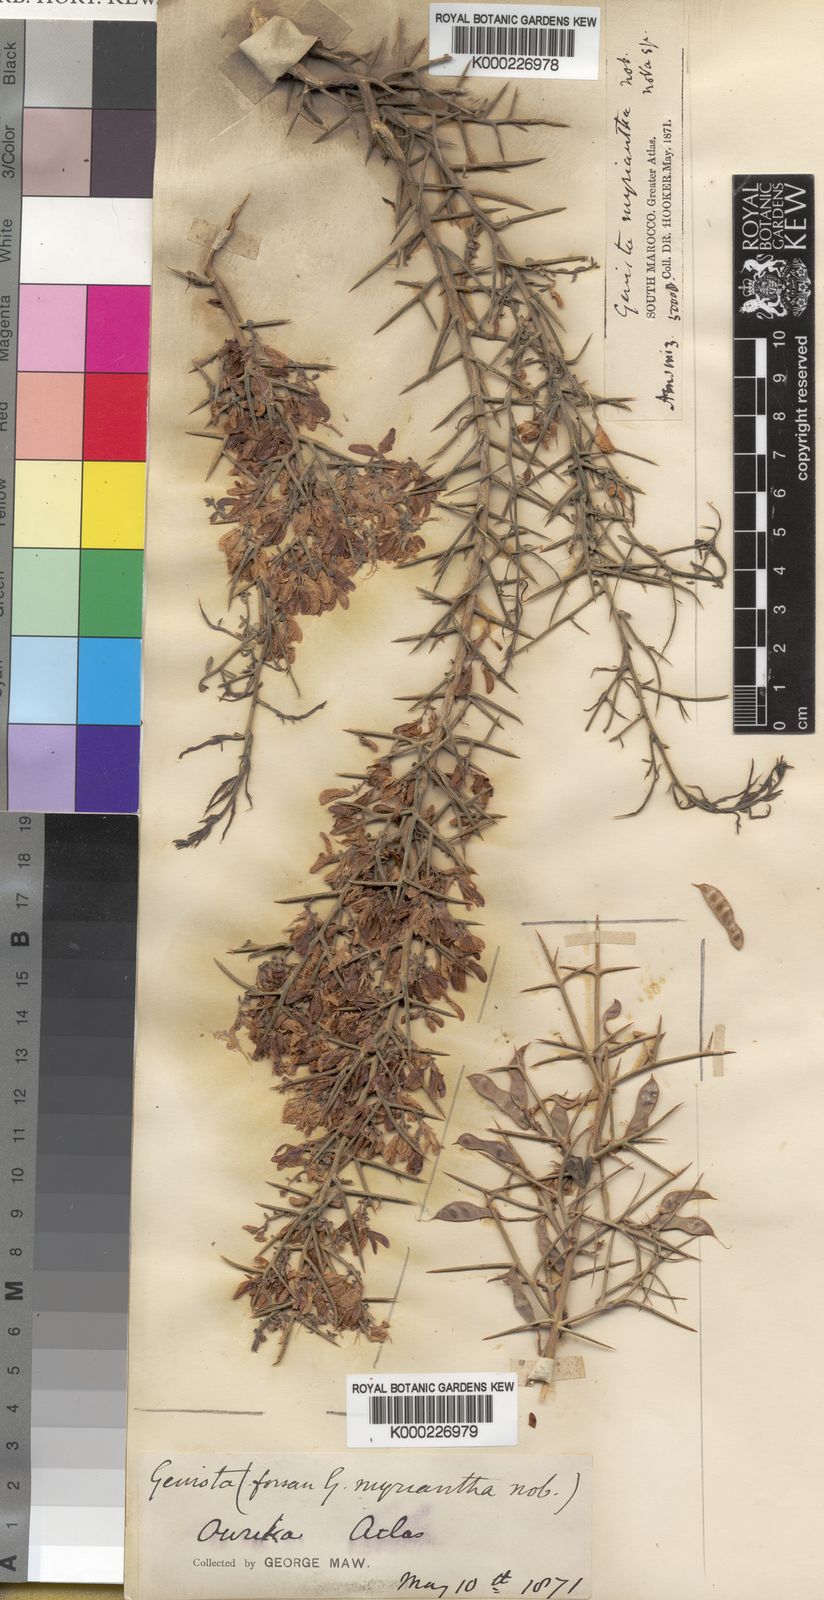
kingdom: Plantae
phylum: Tracheophyta
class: Magnoliopsida
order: Fabales
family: Fabaceae
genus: Genista
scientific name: Genista scorpius
